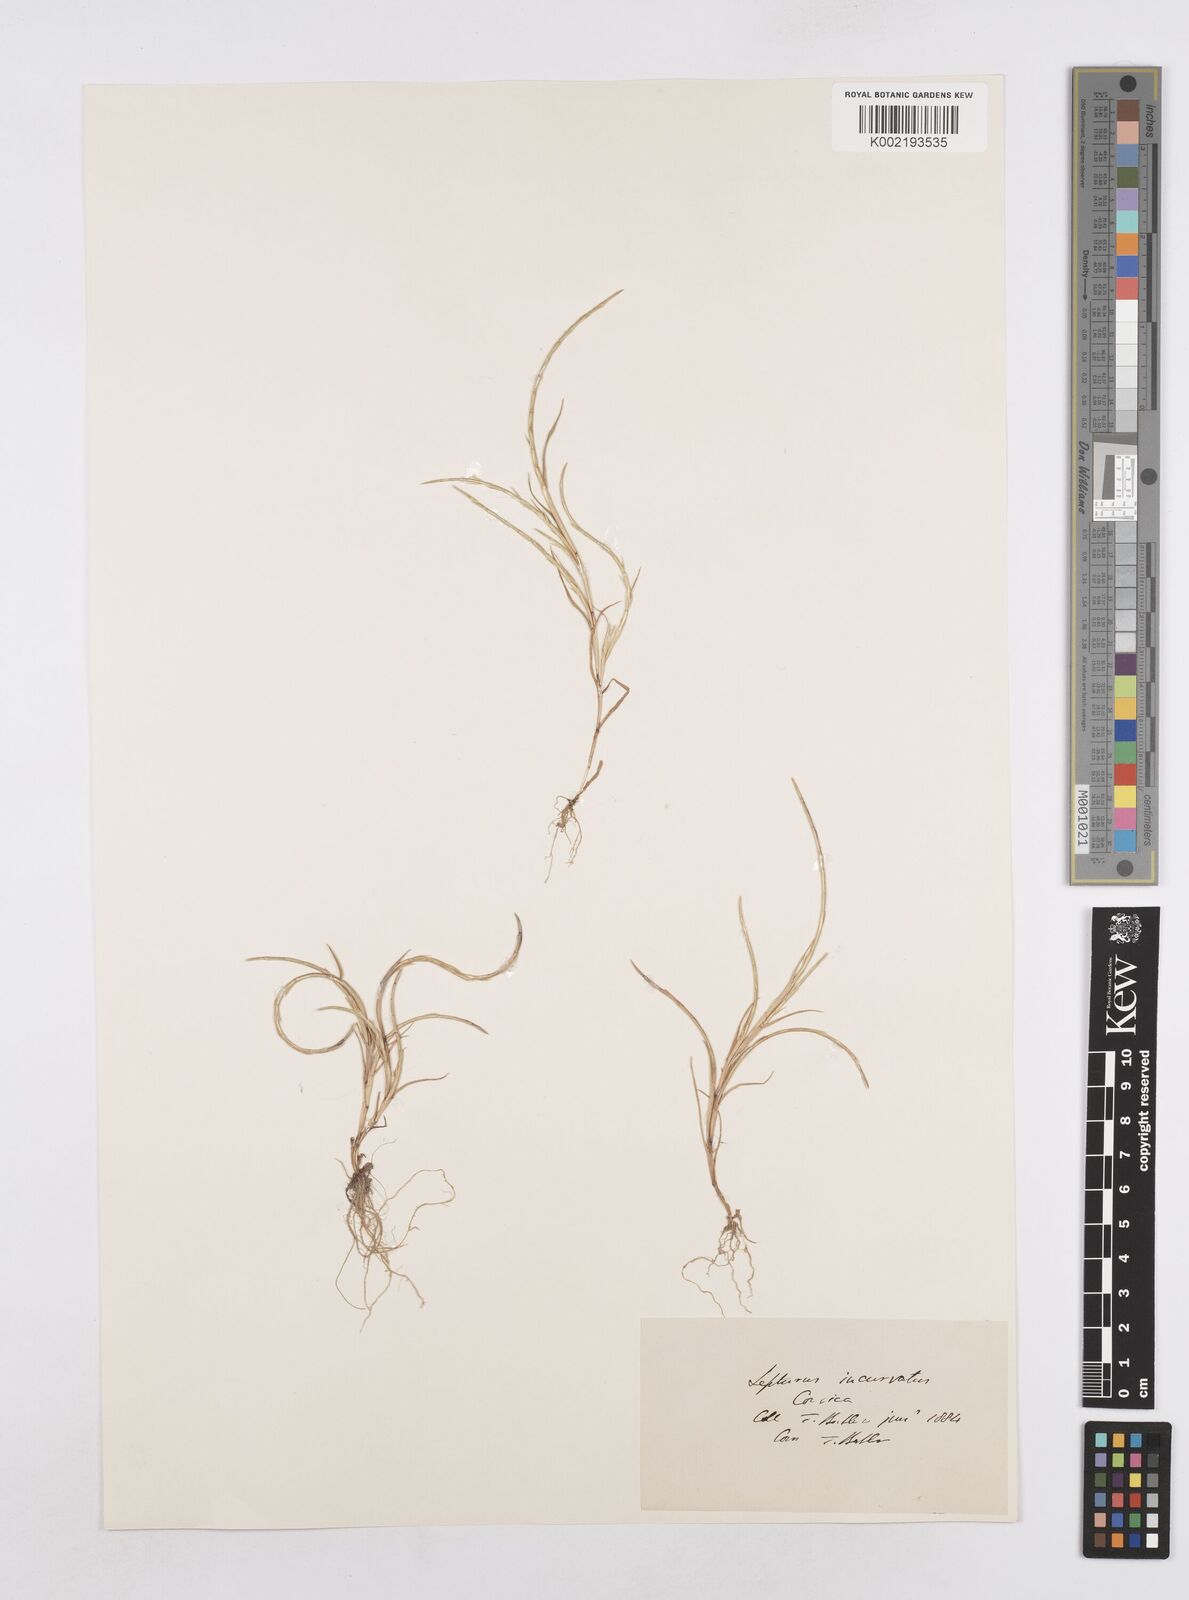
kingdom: Plantae
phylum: Tracheophyta
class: Liliopsida
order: Poales
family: Poaceae
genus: Parapholis
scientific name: Parapholis incurva
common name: Curved sicklegrass
